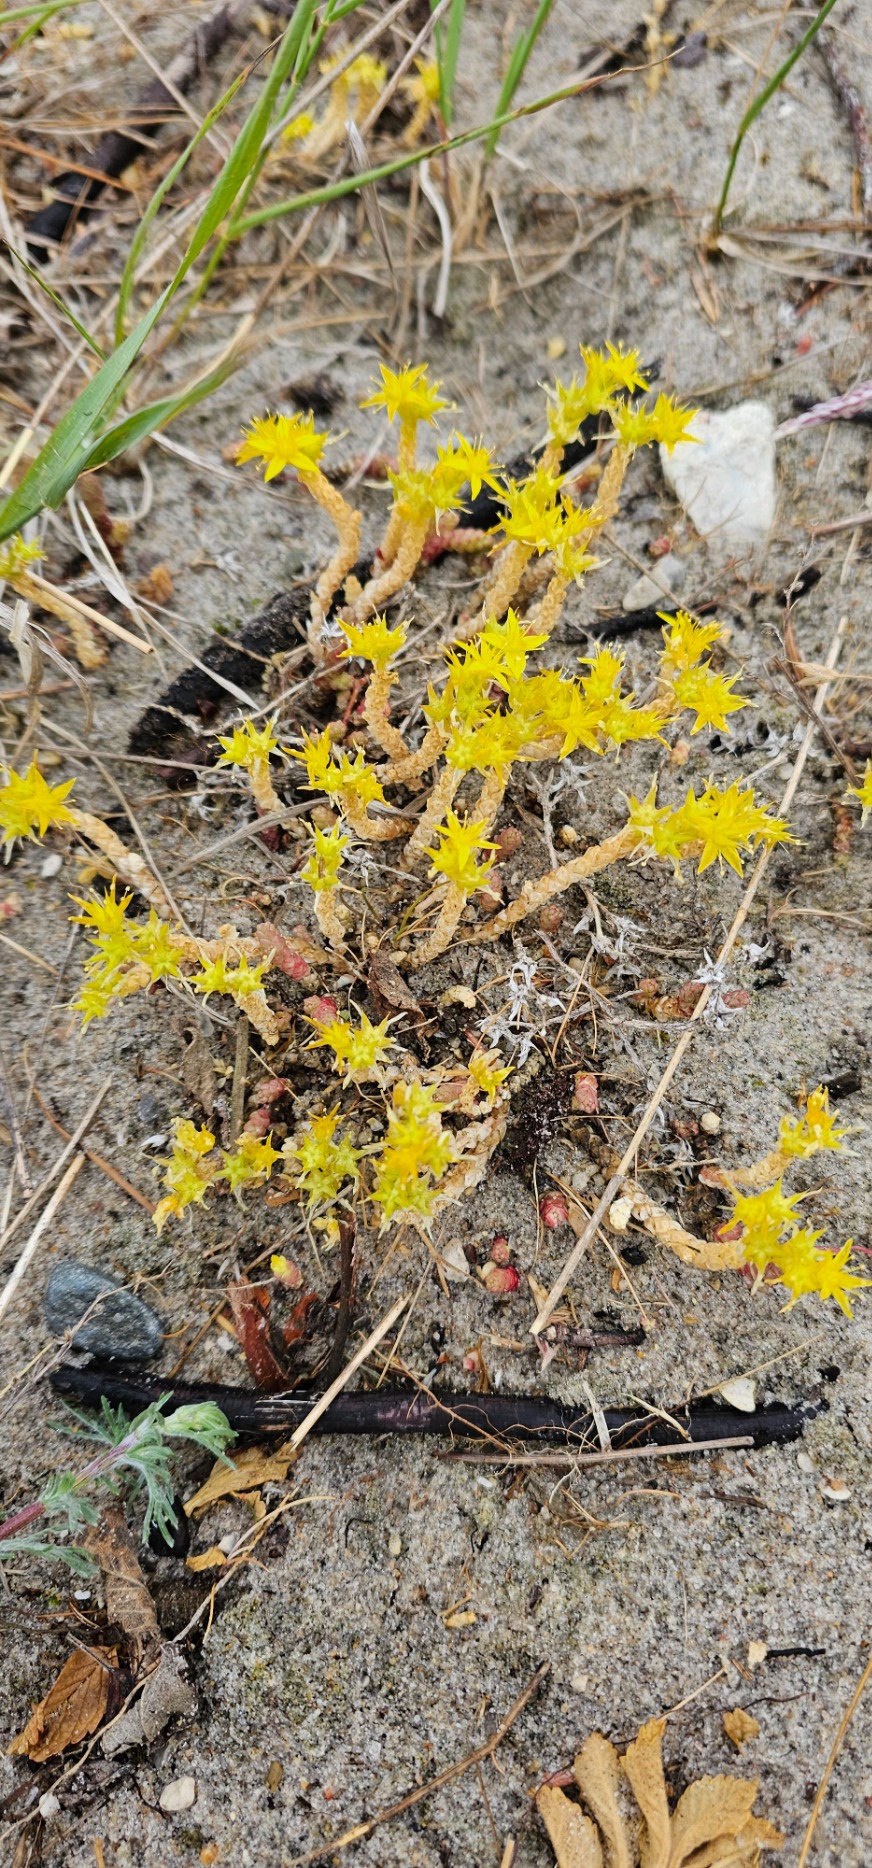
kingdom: Plantae
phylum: Tracheophyta
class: Magnoliopsida
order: Saxifragales
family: Crassulaceae
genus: Sedum
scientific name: Sedum acre
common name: Bidende stenurt
